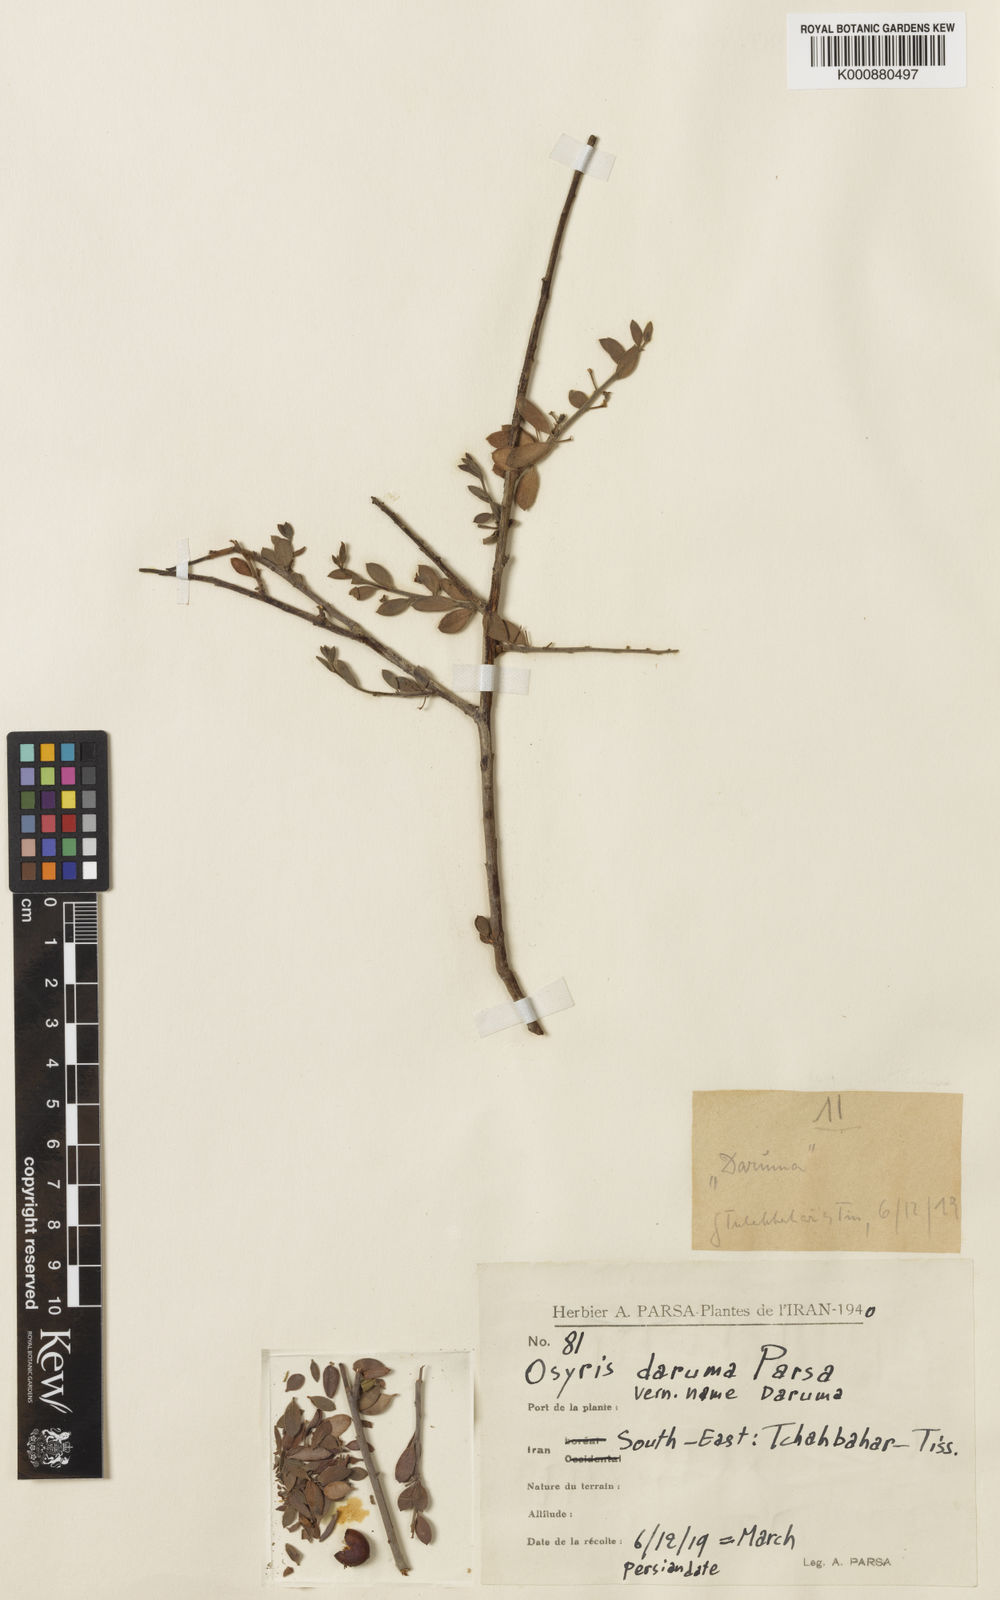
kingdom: Plantae
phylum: Tracheophyta
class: Magnoliopsida
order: Santalales
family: Santalaceae
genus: Osyris
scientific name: Osyris daruma
